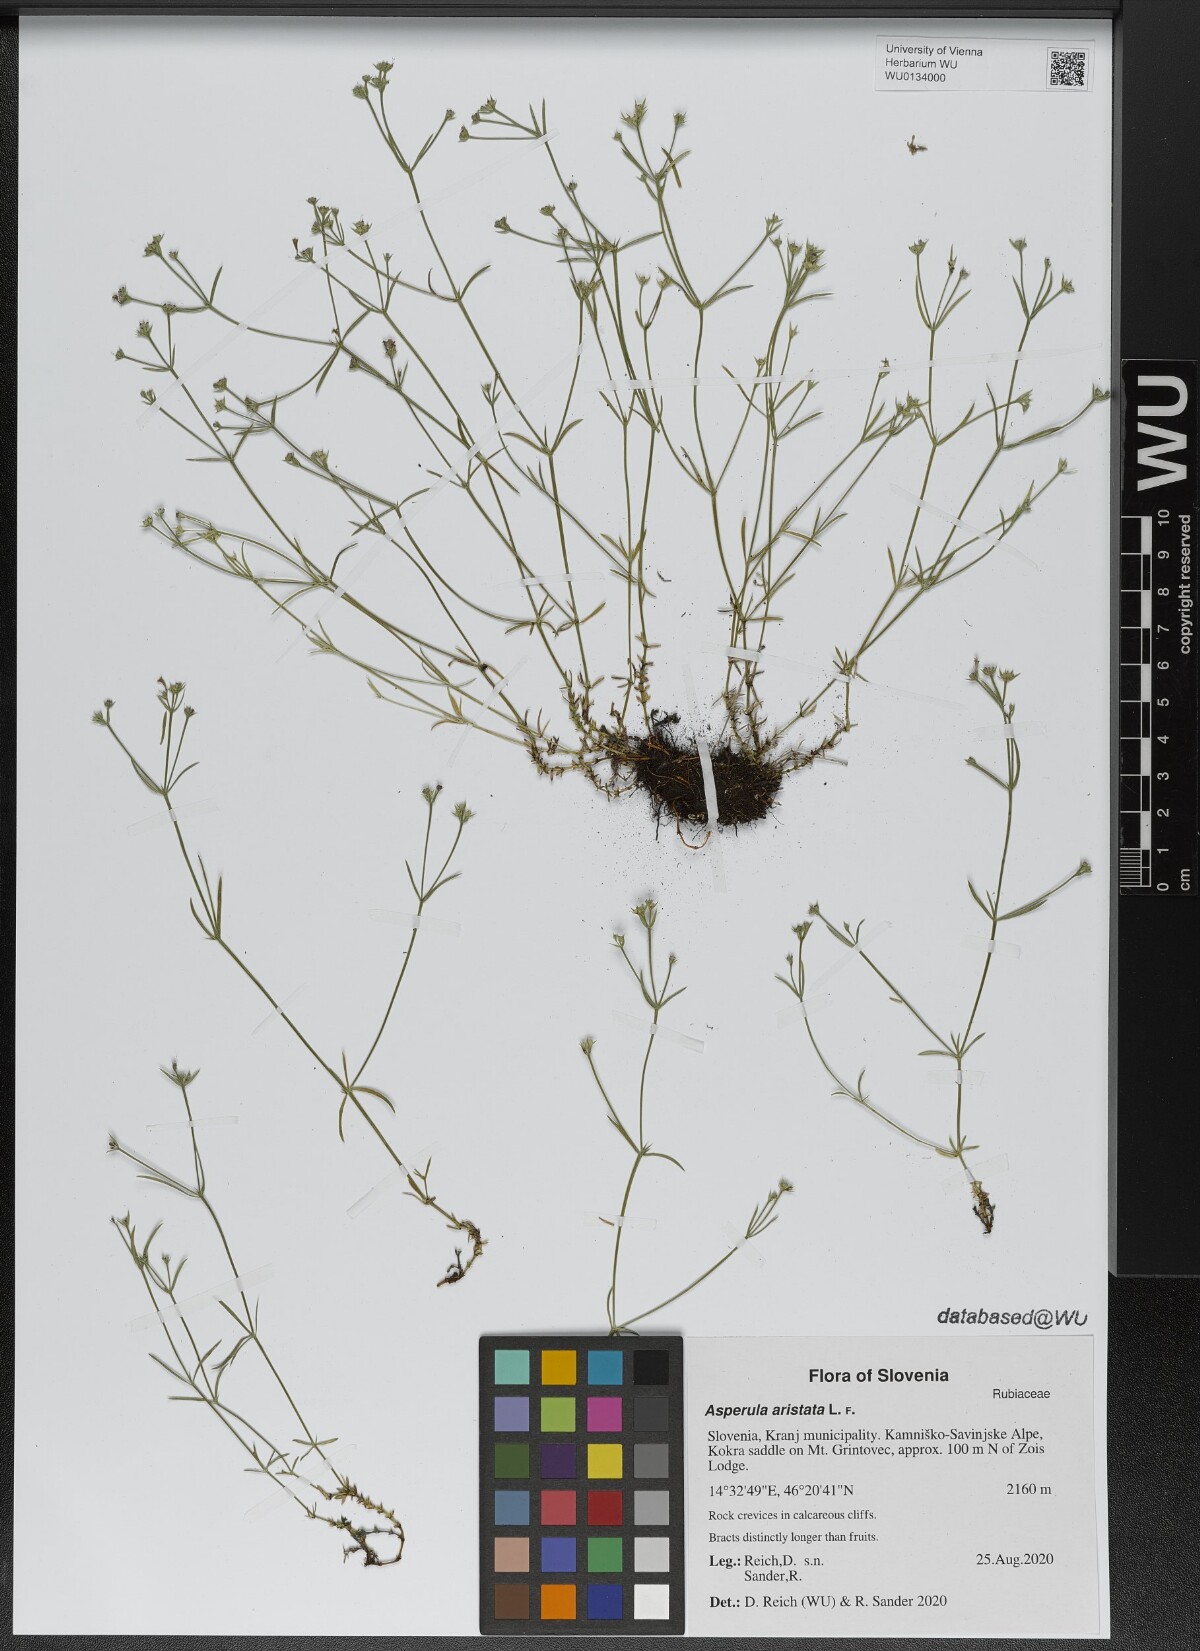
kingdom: Plantae
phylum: Tracheophyta
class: Magnoliopsida
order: Gentianales
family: Rubiaceae
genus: Cynanchica
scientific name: Cynanchica aristata
